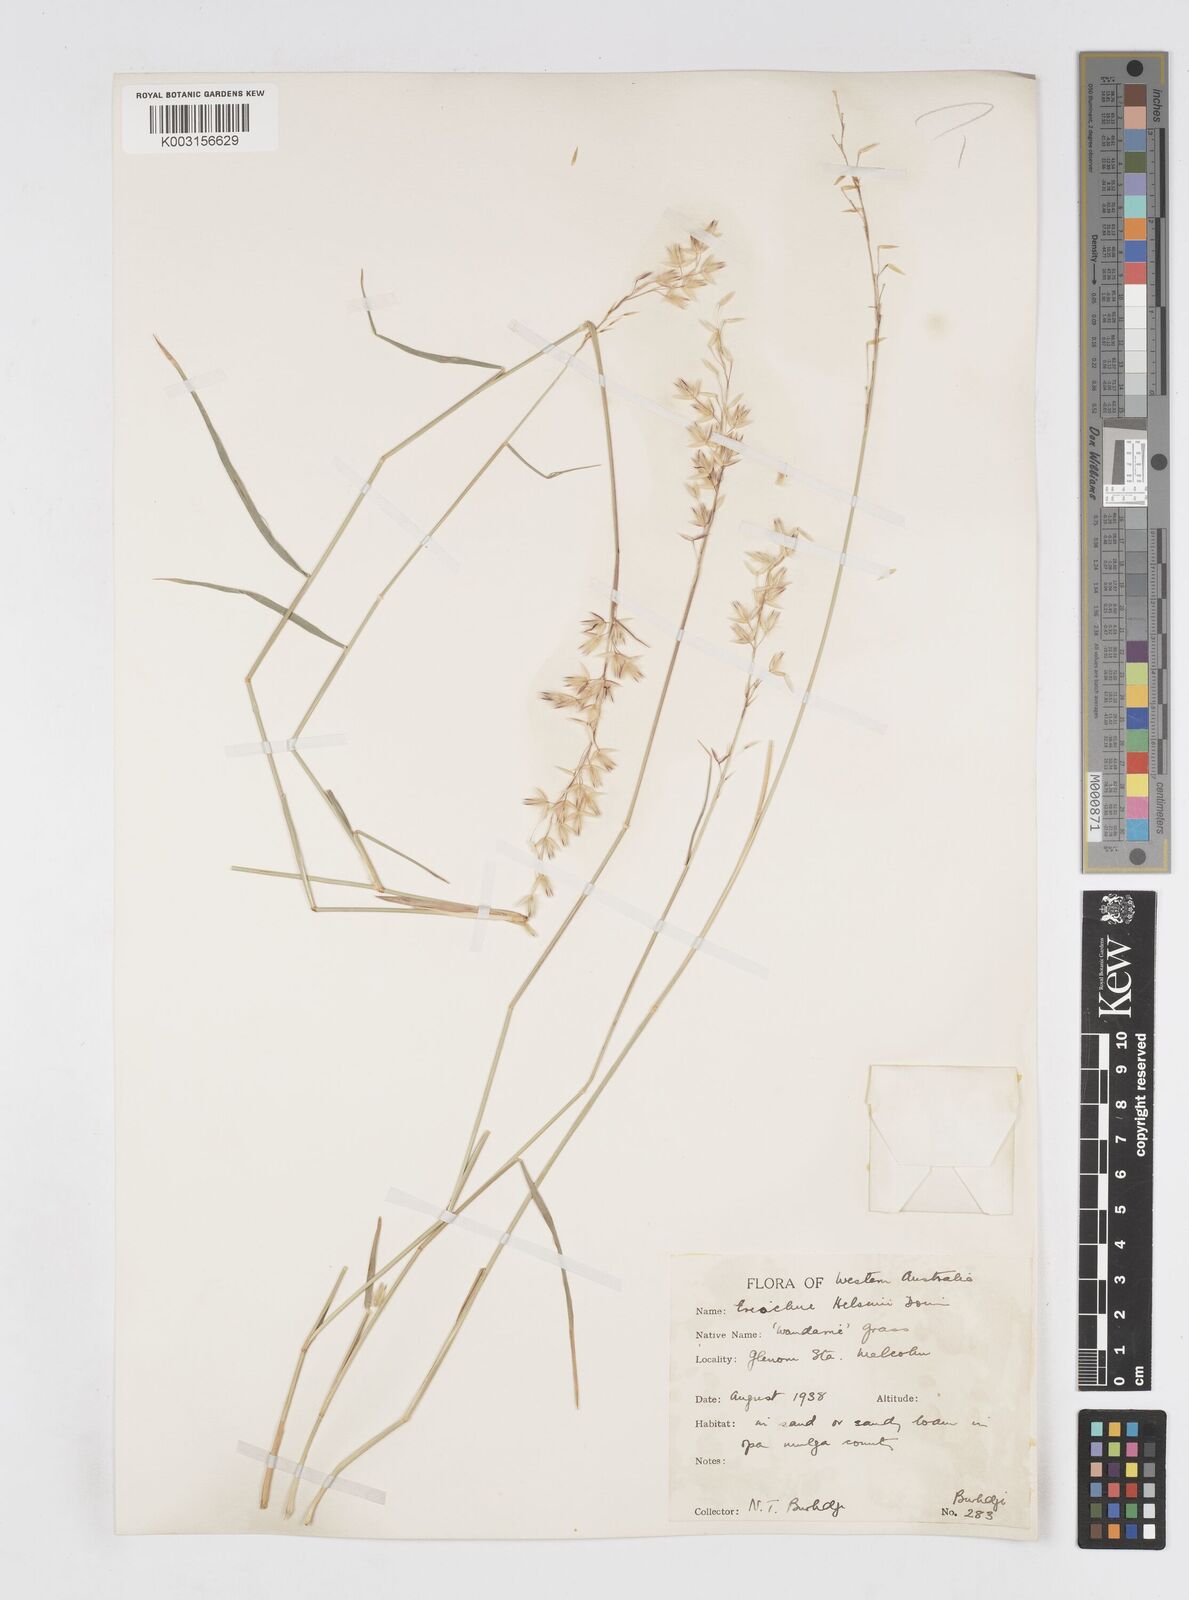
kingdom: Plantae
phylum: Tracheophyta
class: Liliopsida
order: Poales
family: Poaceae
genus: Eriachne
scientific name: Eriachne helmsii
